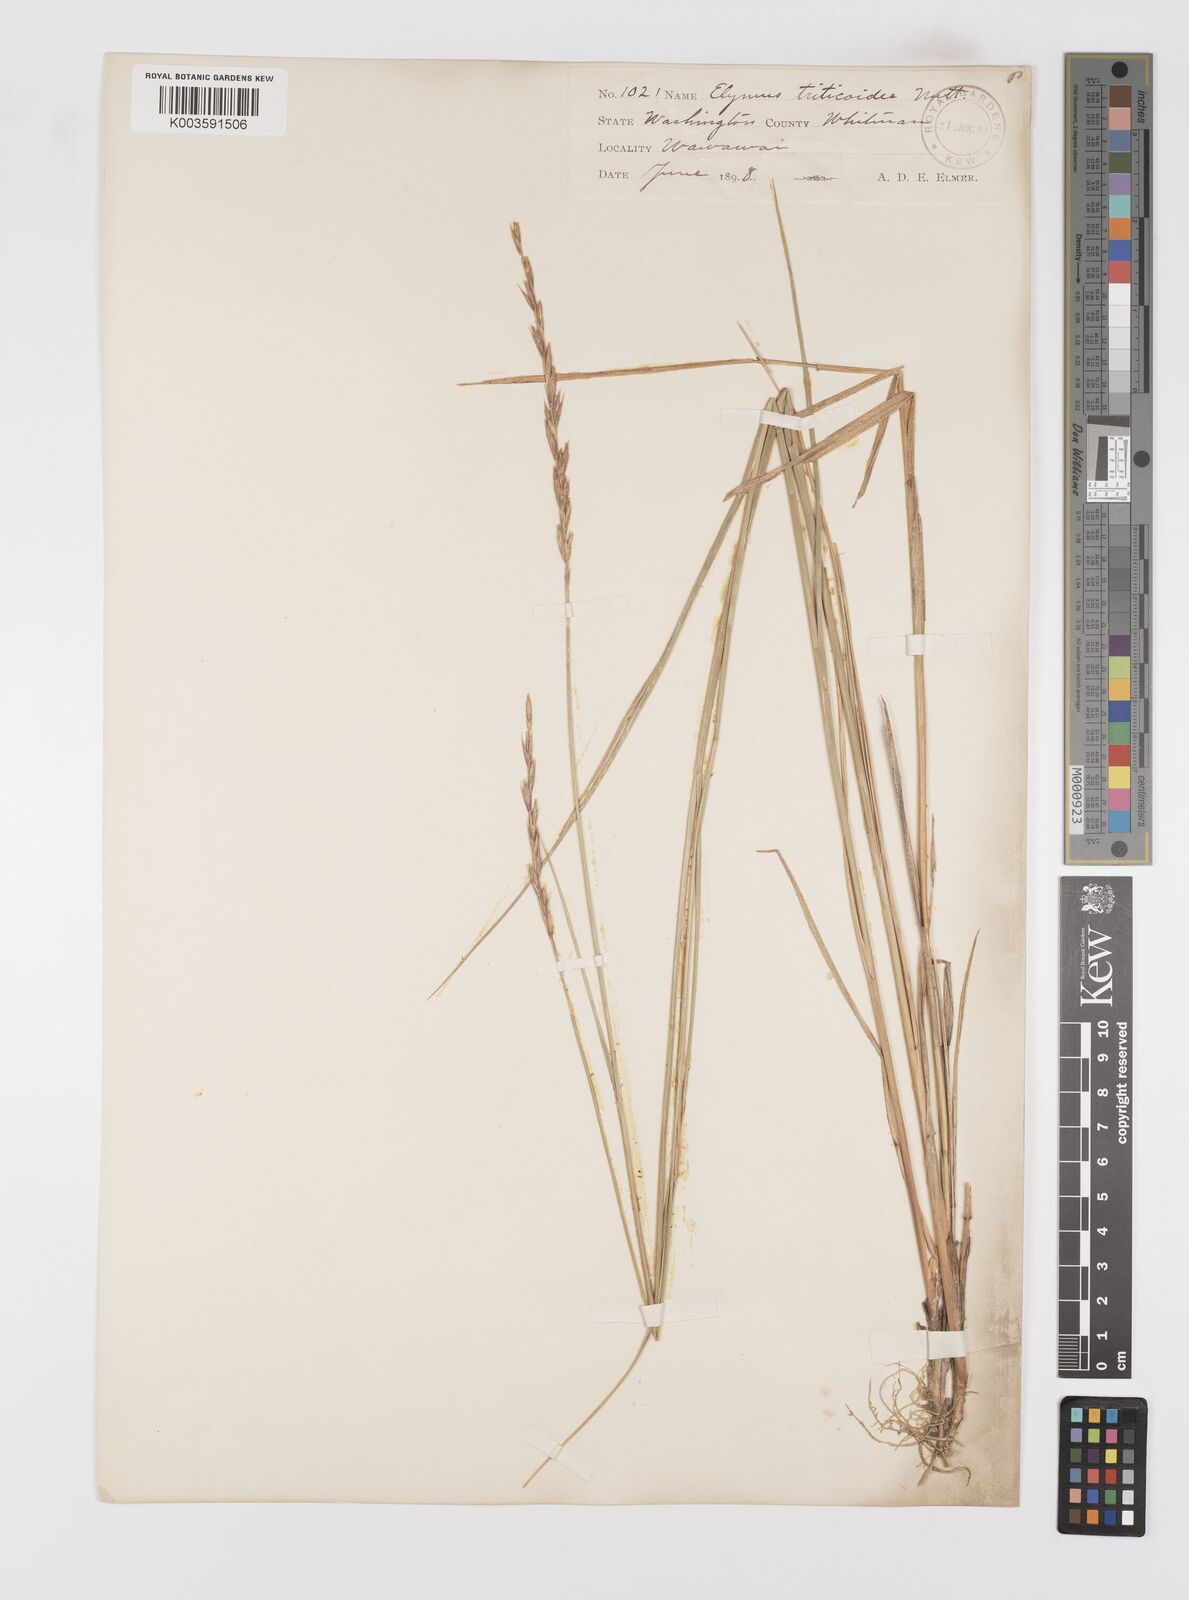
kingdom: Plantae
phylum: Tracheophyta
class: Liliopsida
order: Poales
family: Poaceae
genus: Leymus
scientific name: Leymus triticoides
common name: Beardless wild rye
